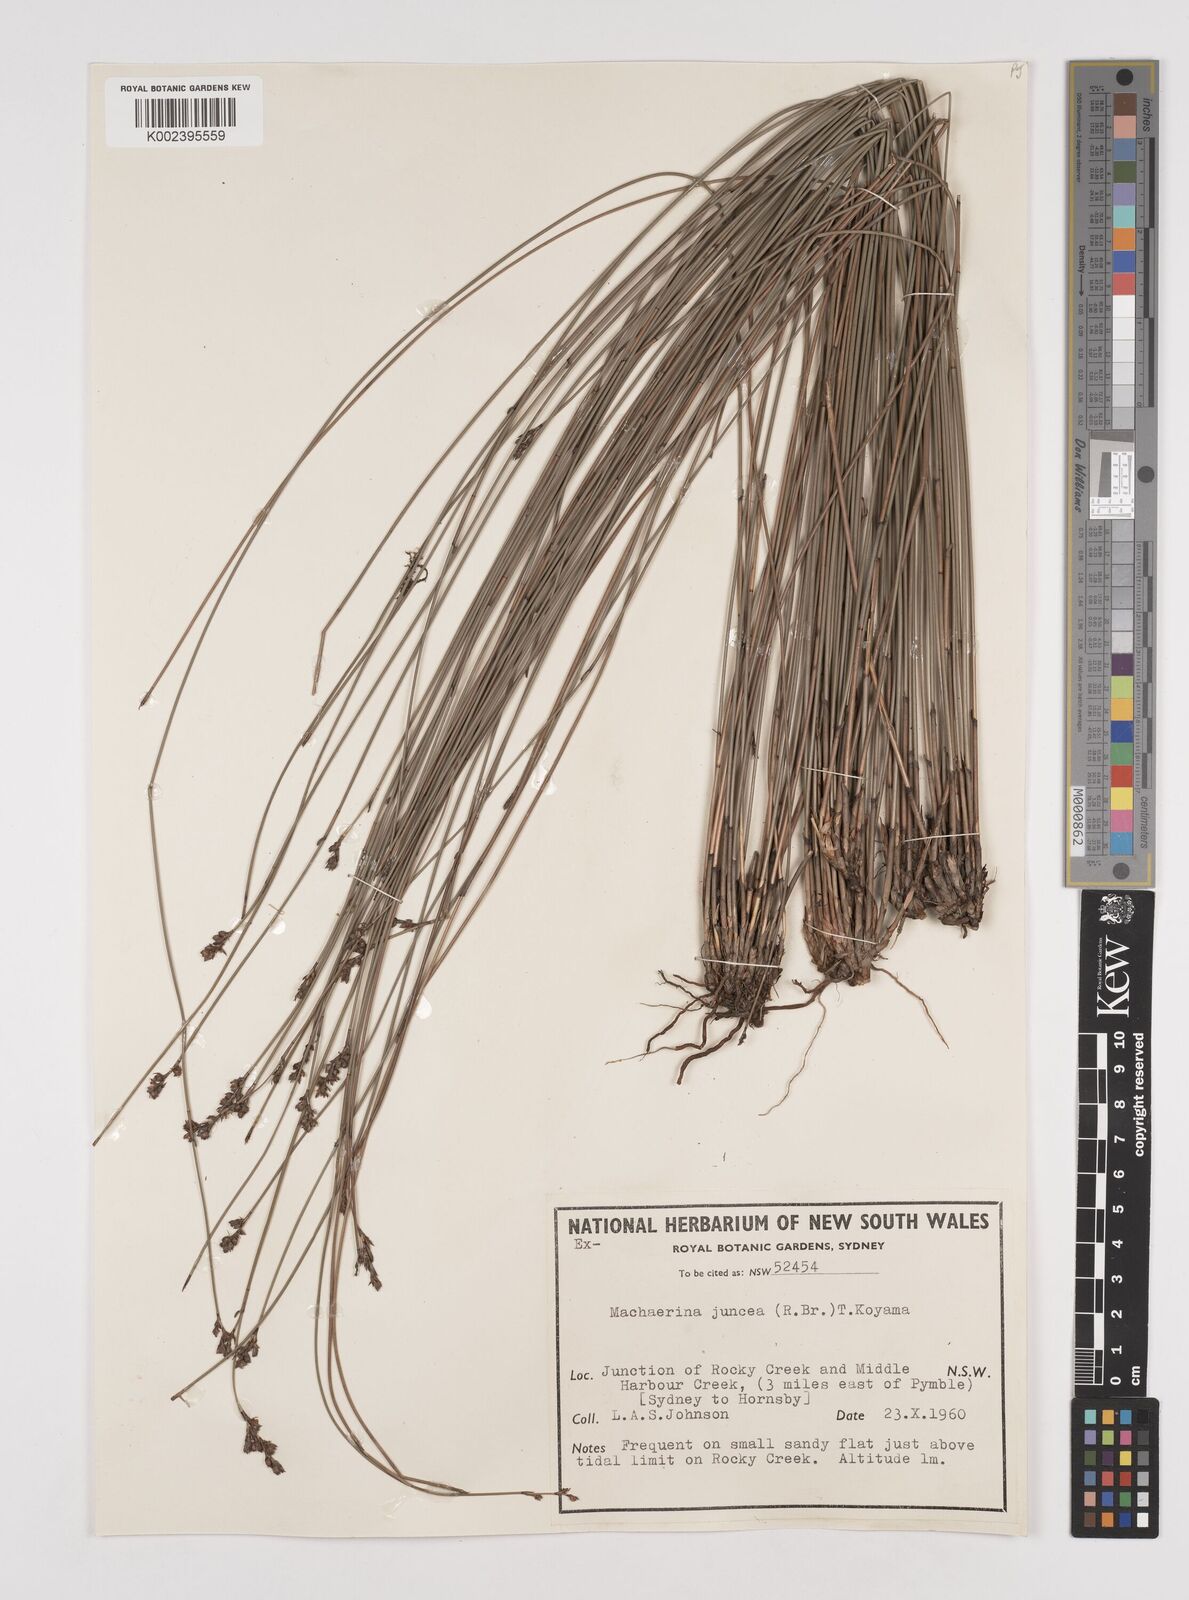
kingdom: Plantae
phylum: Tracheophyta
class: Liliopsida
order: Poales
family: Cyperaceae
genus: Machaerina
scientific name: Machaerina juncea
